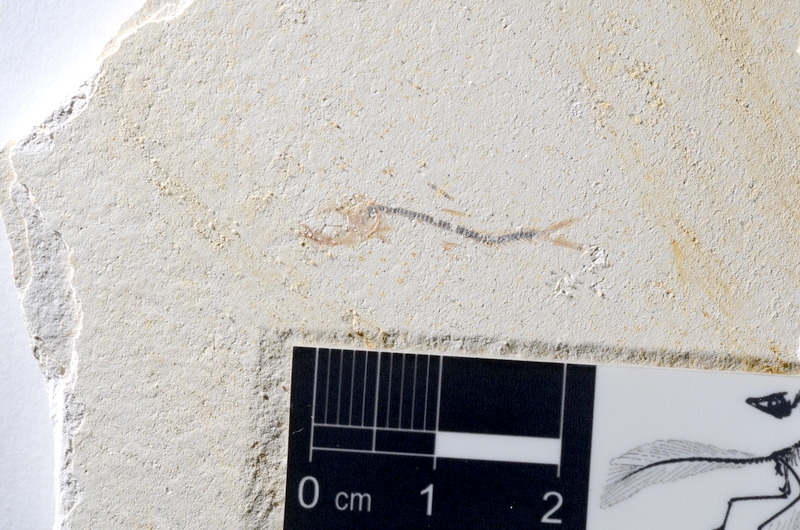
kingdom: Animalia
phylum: Chordata
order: Salmoniformes
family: Orthogonikleithridae
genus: Orthogonikleithrus
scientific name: Orthogonikleithrus hoelli
